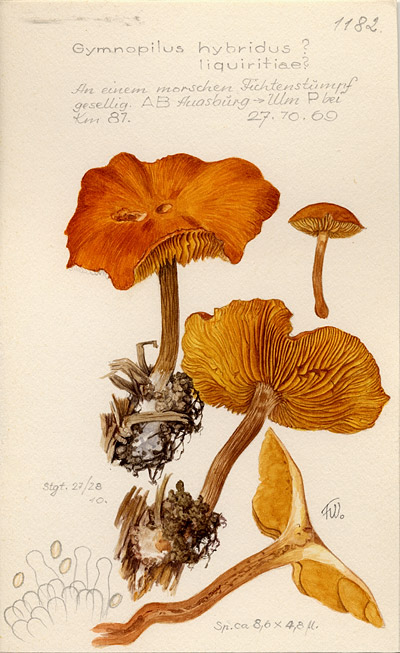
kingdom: Fungi
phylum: Basidiomycota
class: Agaricomycetes
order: Agaricales
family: Hymenogastraceae
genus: Gymnopilus
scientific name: Gymnopilus penetrans
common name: Common rustgill
